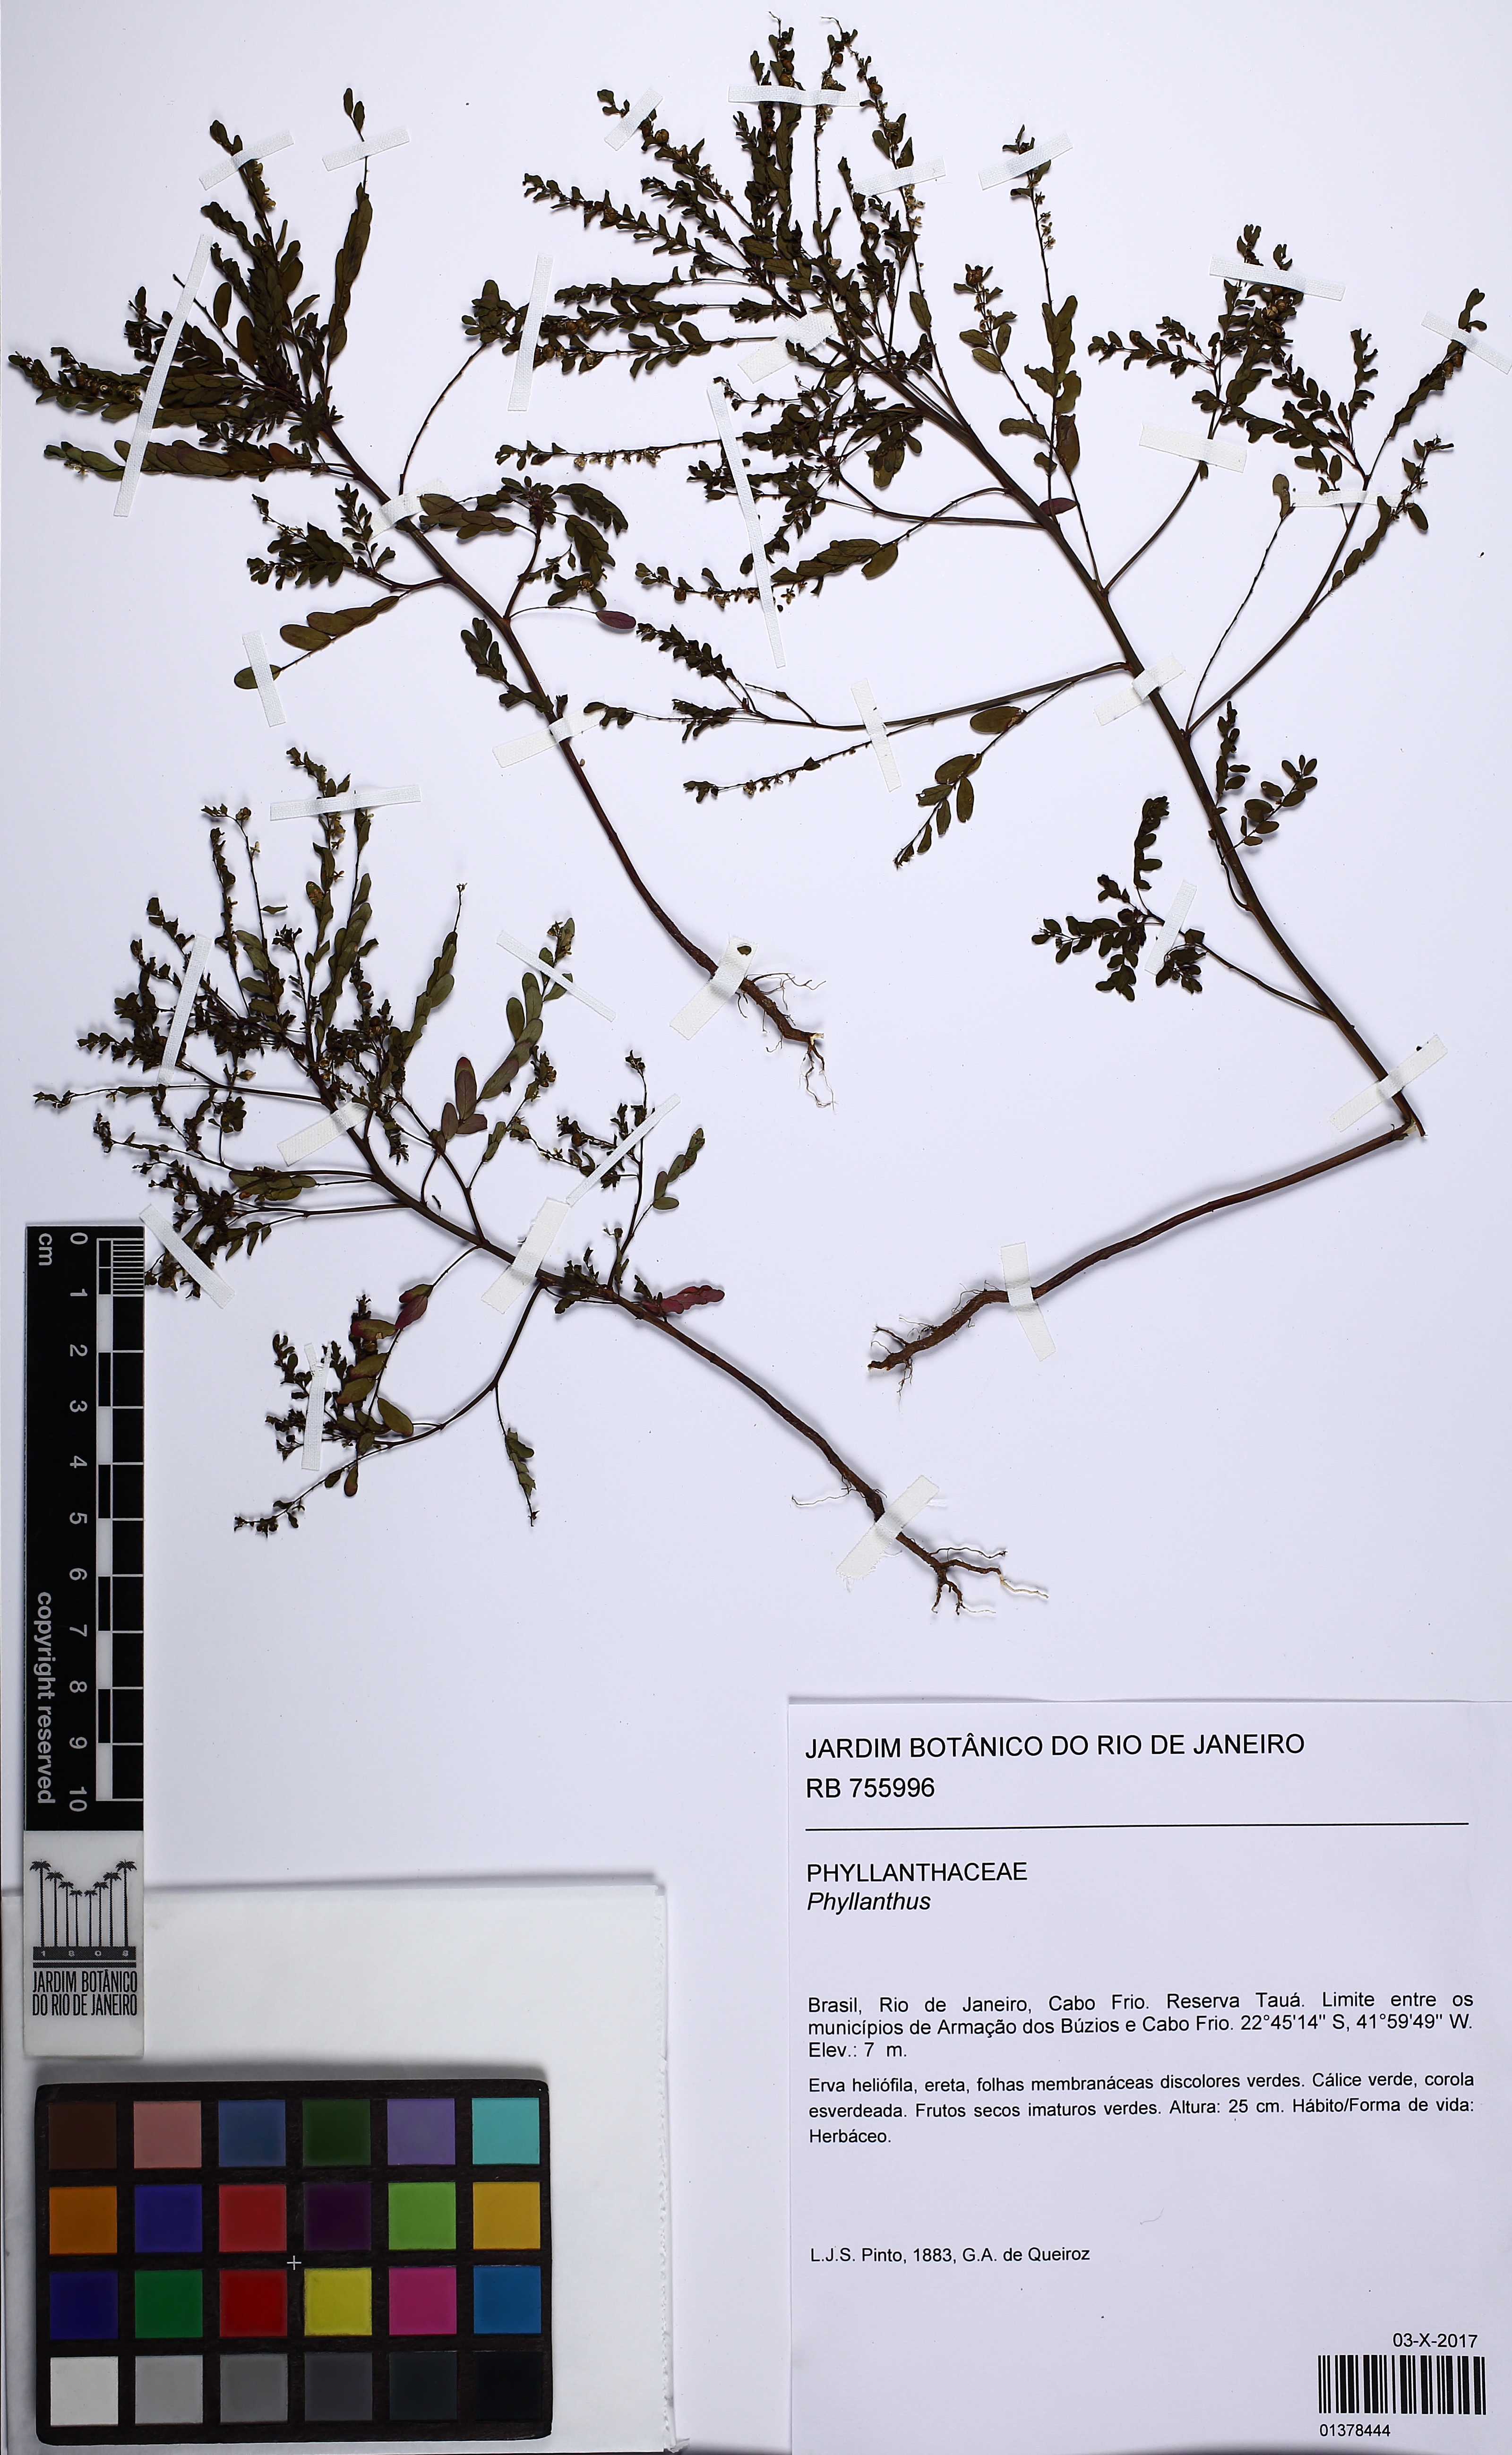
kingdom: Plantae
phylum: Tracheophyta
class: Magnoliopsida
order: Malpighiales
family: Phyllanthaceae
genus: Phyllanthus
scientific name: Phyllanthus
